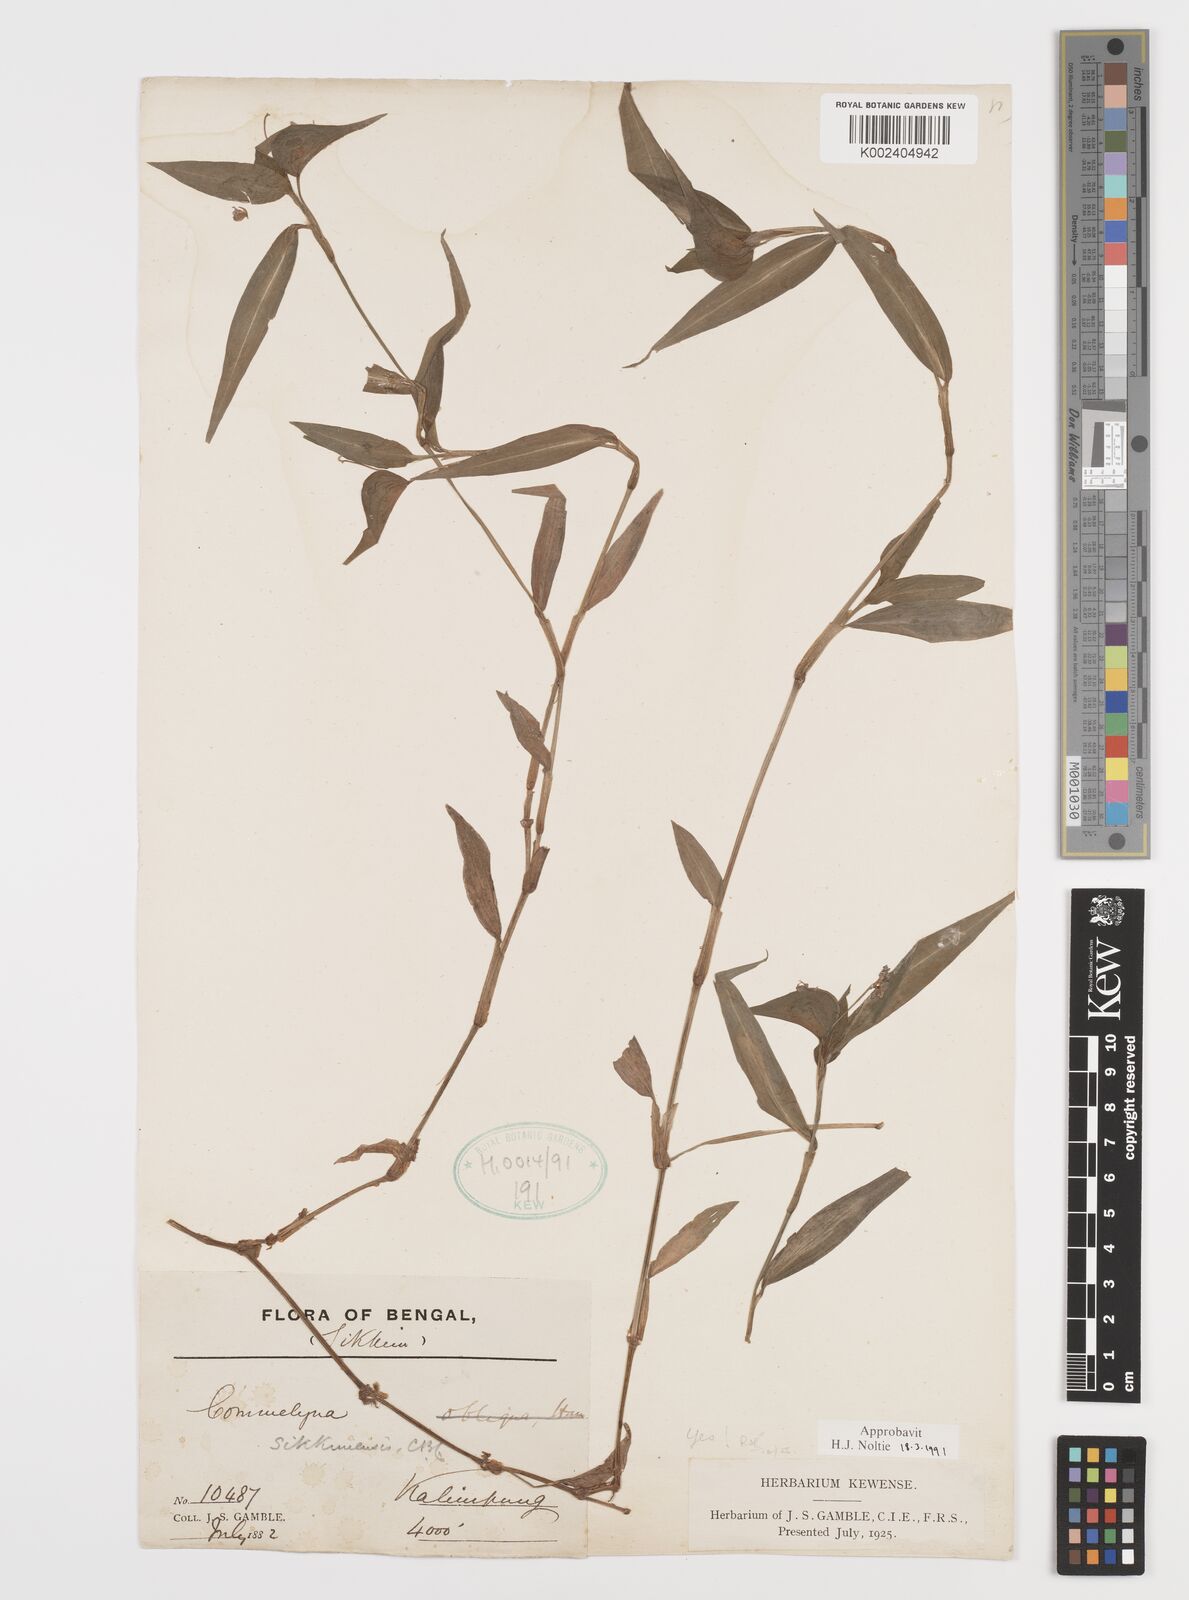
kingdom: Plantae
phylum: Tracheophyta
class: Liliopsida
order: Commelinales
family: Commelinaceae
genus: Commelina
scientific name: Commelina sikkimensis
